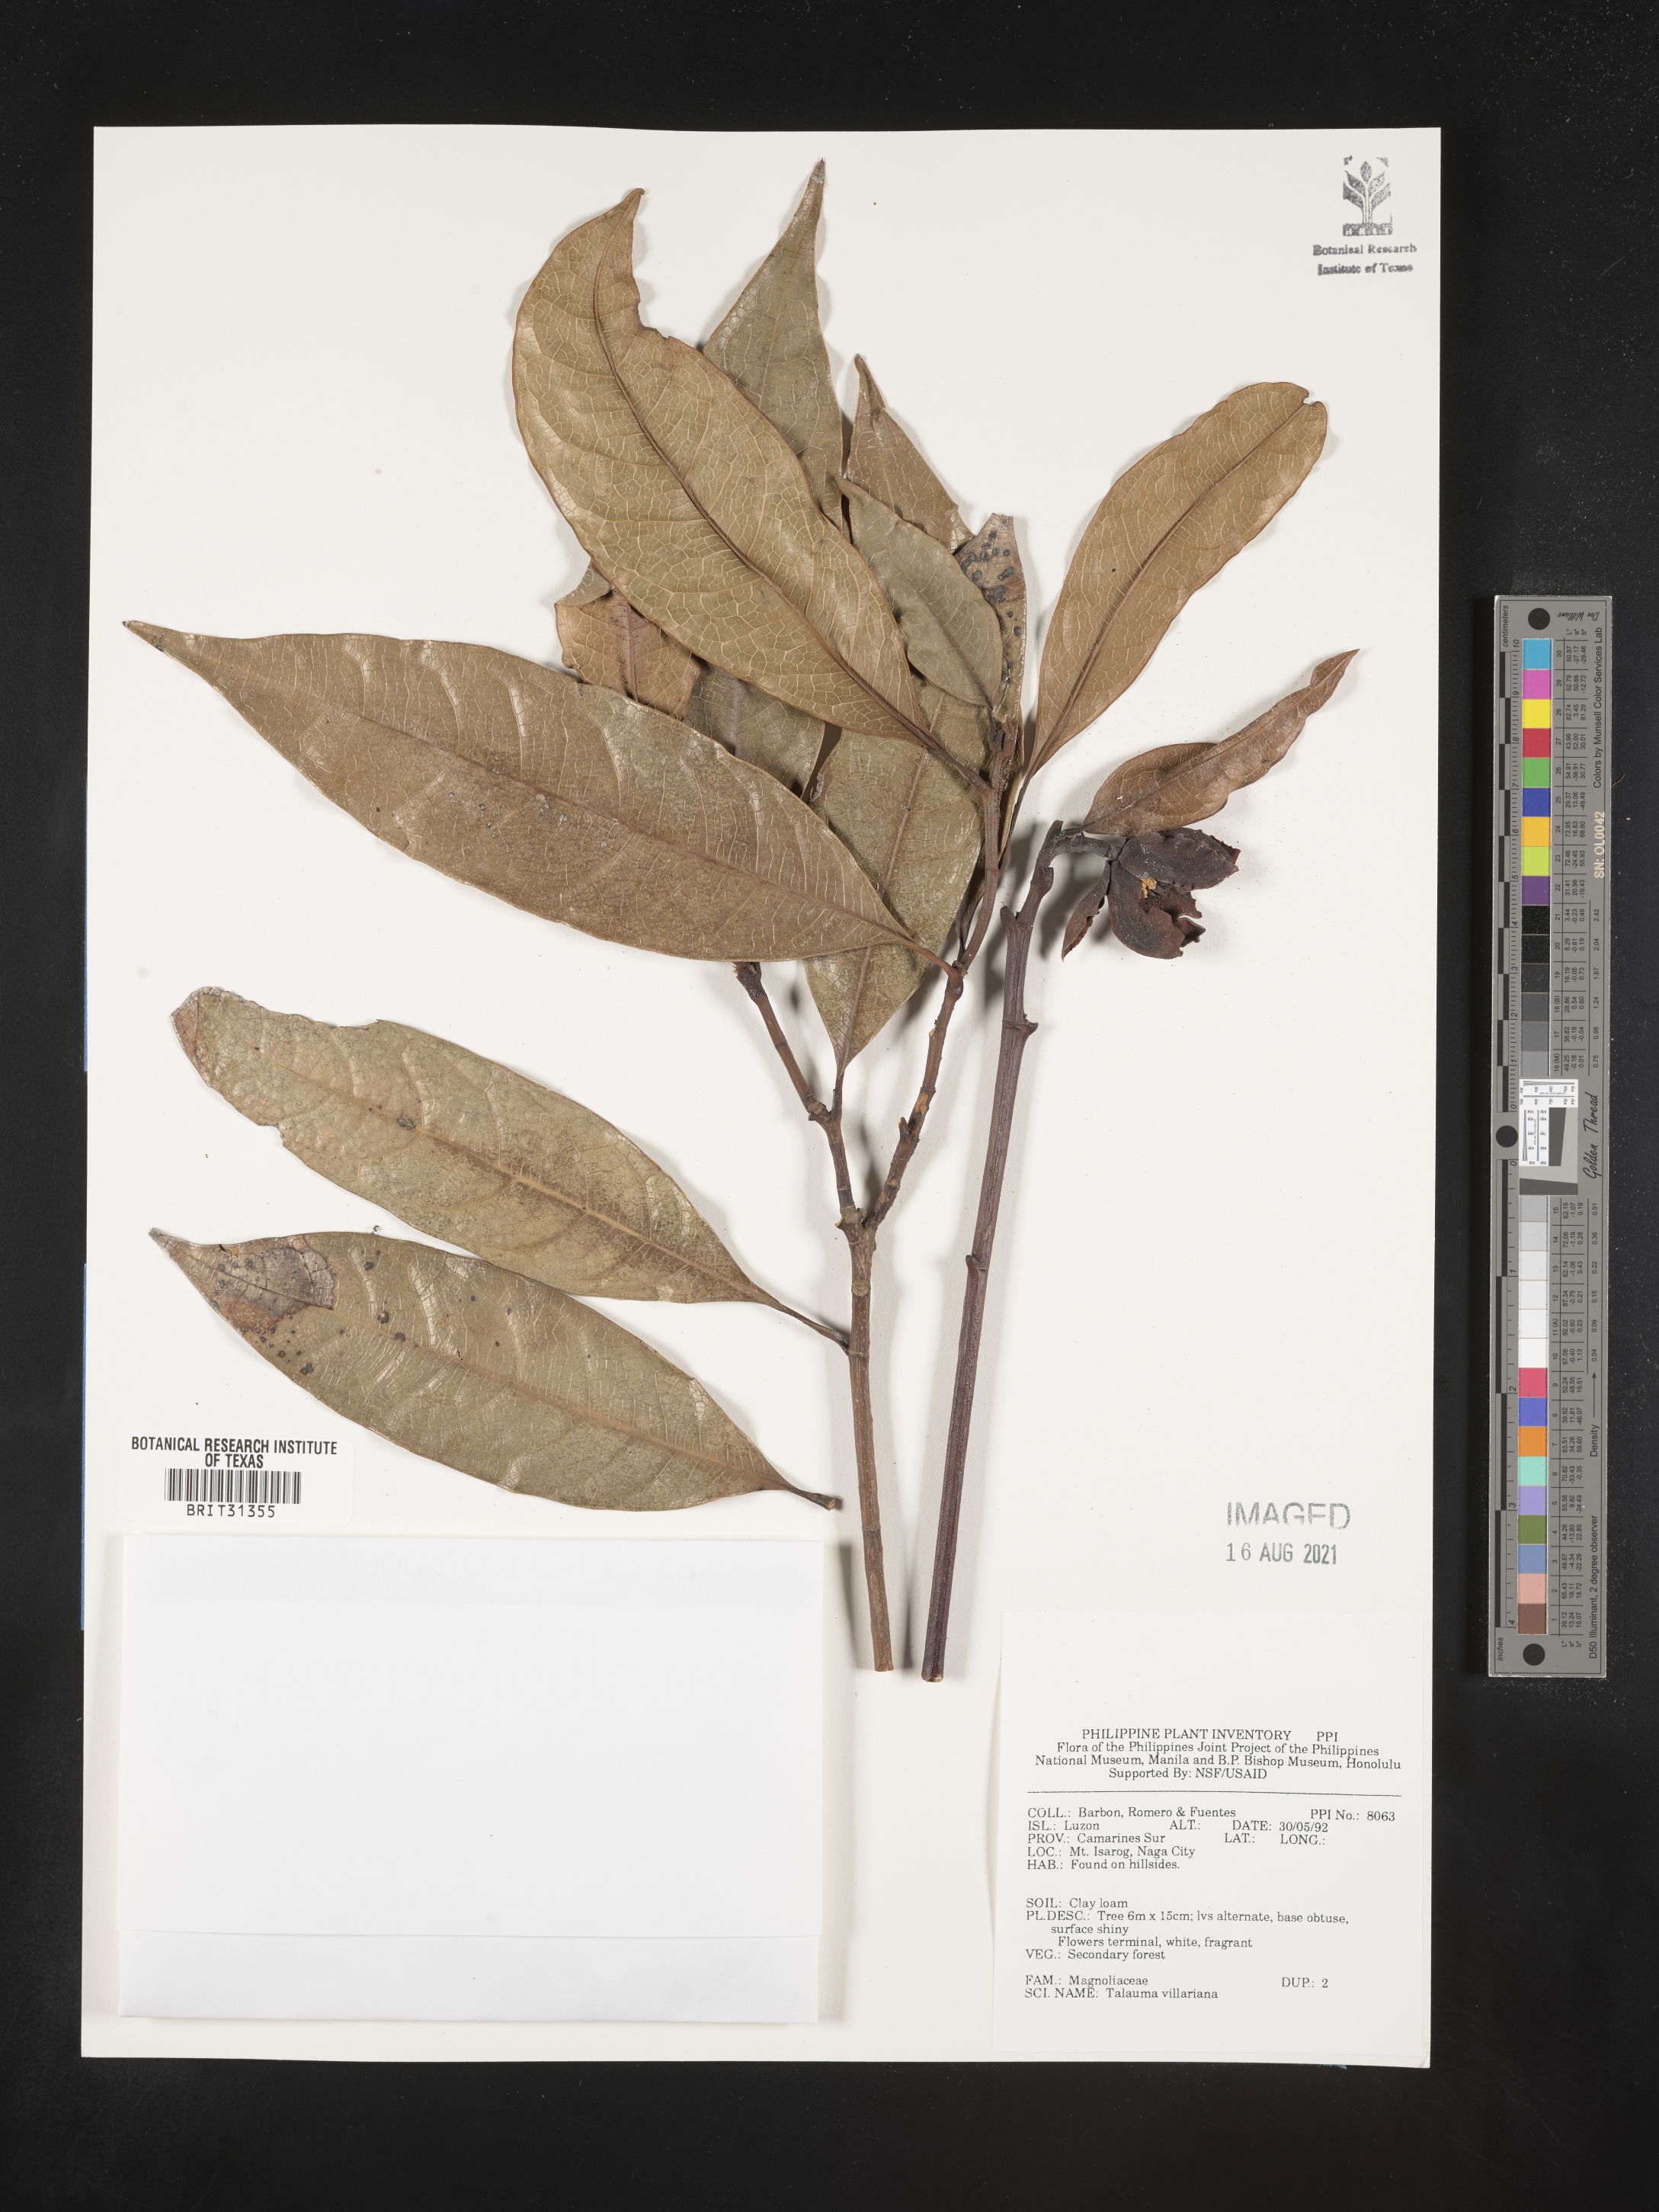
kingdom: Plantae
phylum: Tracheophyta
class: Magnoliopsida
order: Magnoliales
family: Magnoliaceae
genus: Magnolia
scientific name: Magnolia angatensis
